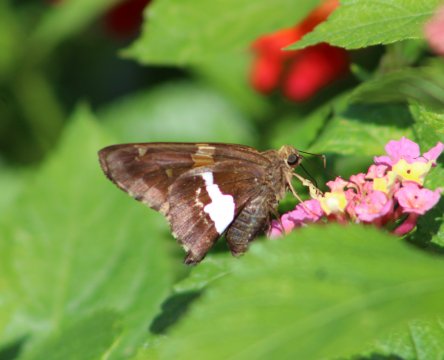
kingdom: Animalia
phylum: Arthropoda
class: Insecta
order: Lepidoptera
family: Hesperiidae
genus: Epargyreus
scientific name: Epargyreus clarus
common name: Silver-spotted Skipper
